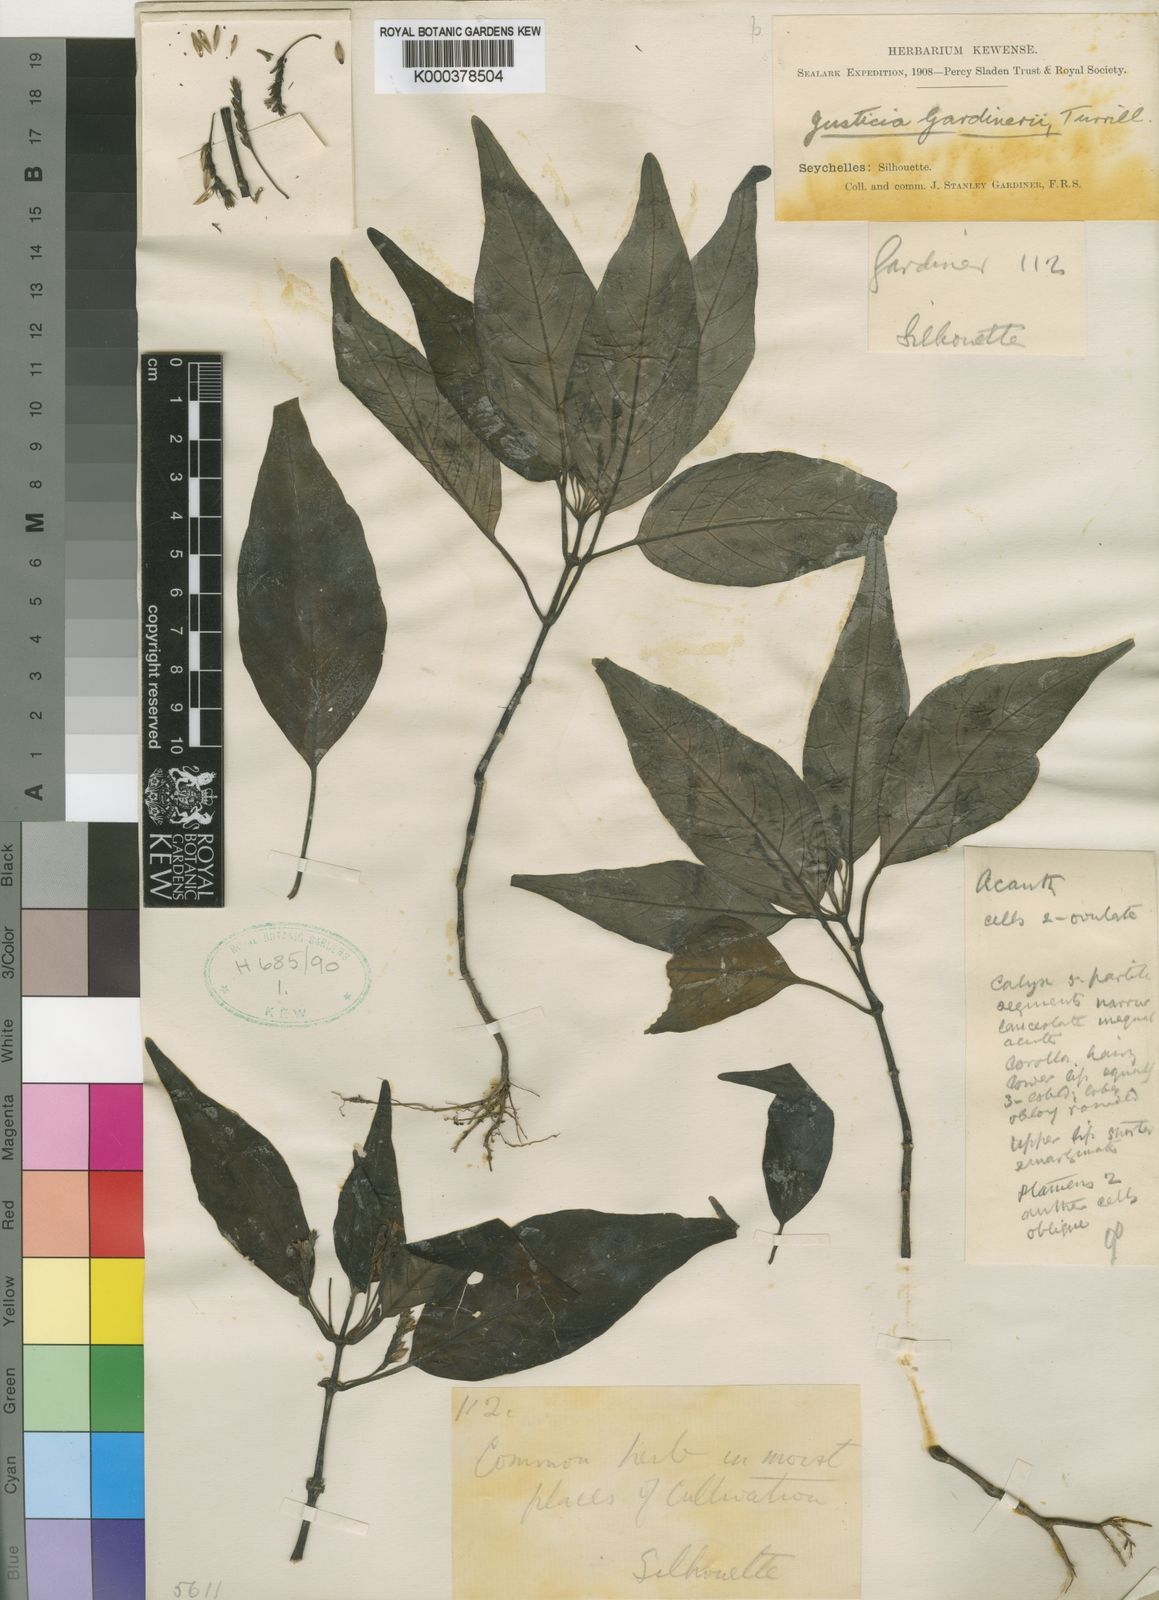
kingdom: Plantae
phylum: Tracheophyta
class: Magnoliopsida
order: Lamiales
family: Acanthaceae
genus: Justicia
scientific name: Justicia gardineri
